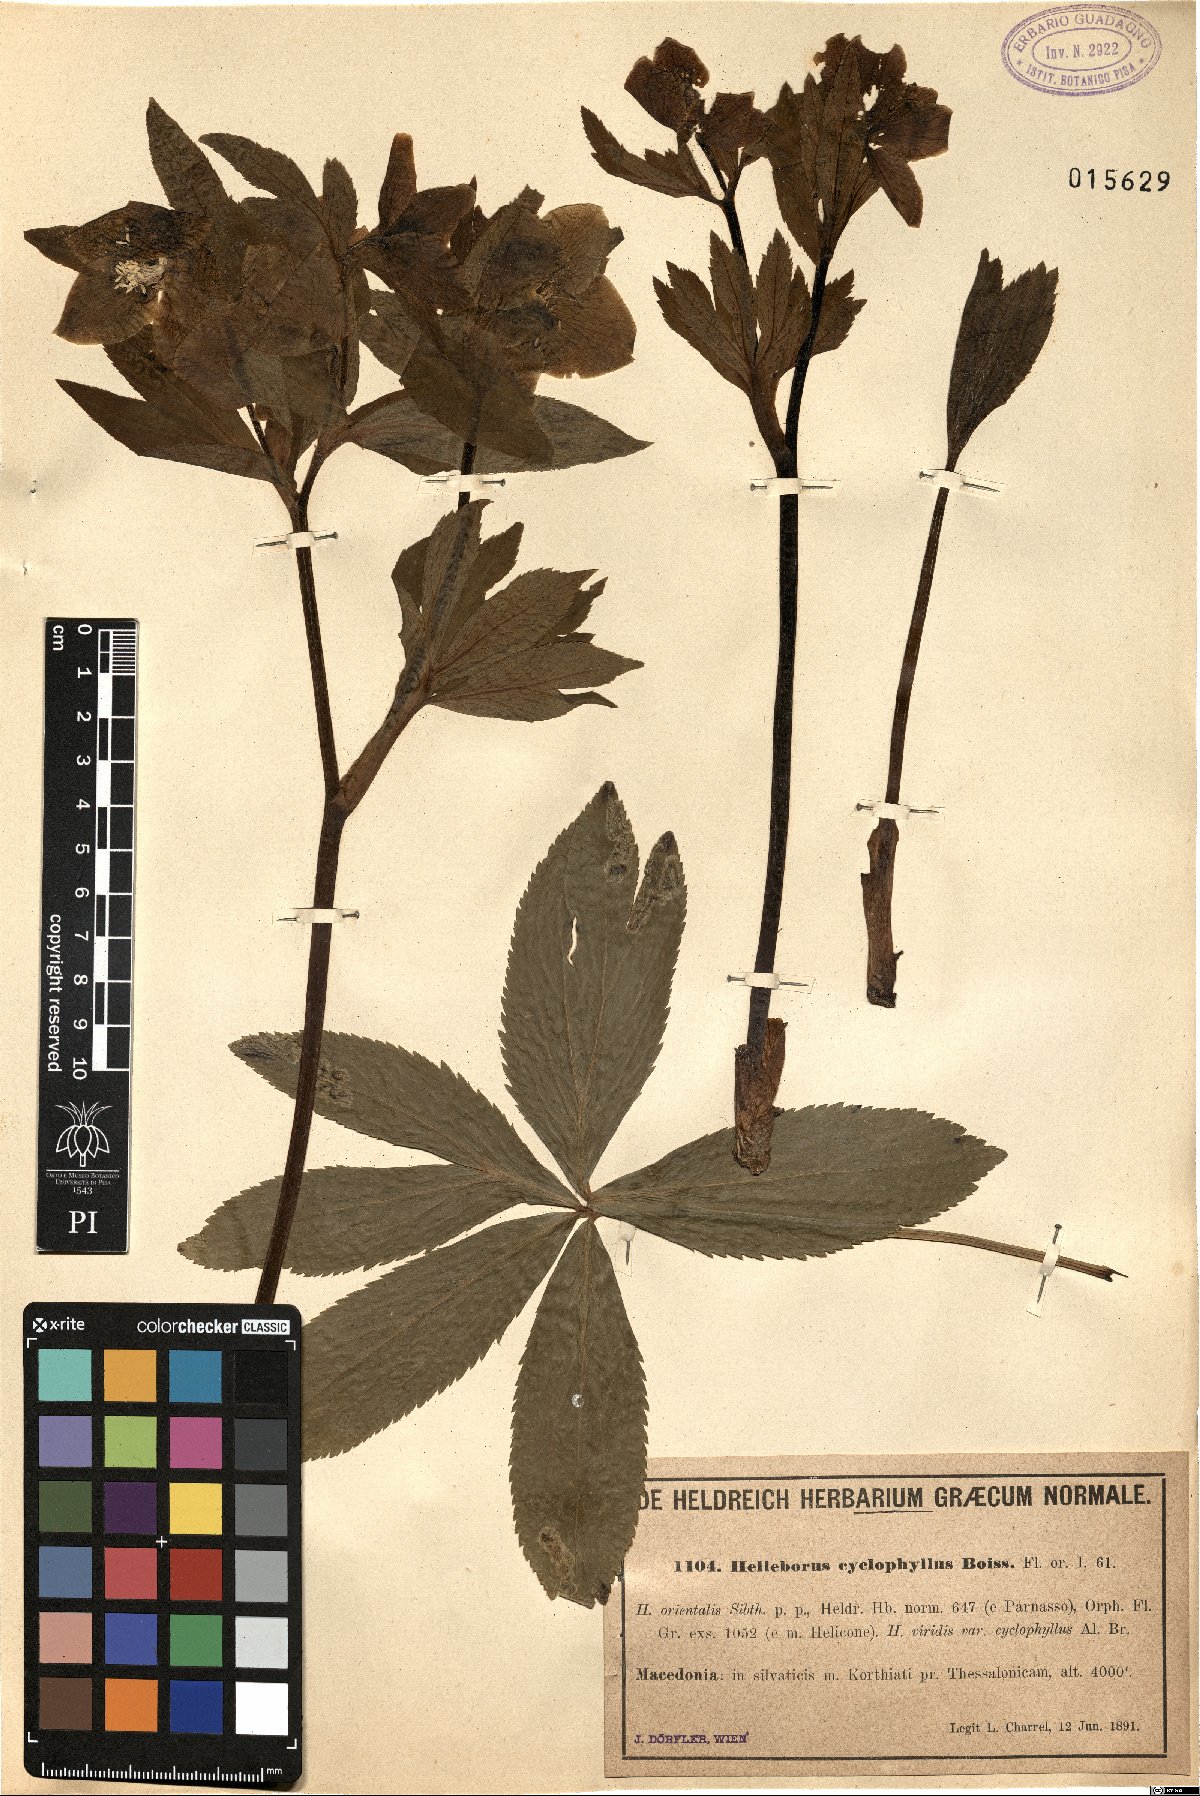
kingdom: Plantae
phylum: Tracheophyta
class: Magnoliopsida
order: Ranunculales
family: Ranunculaceae
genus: Helleborus
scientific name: Helleborus odorus
